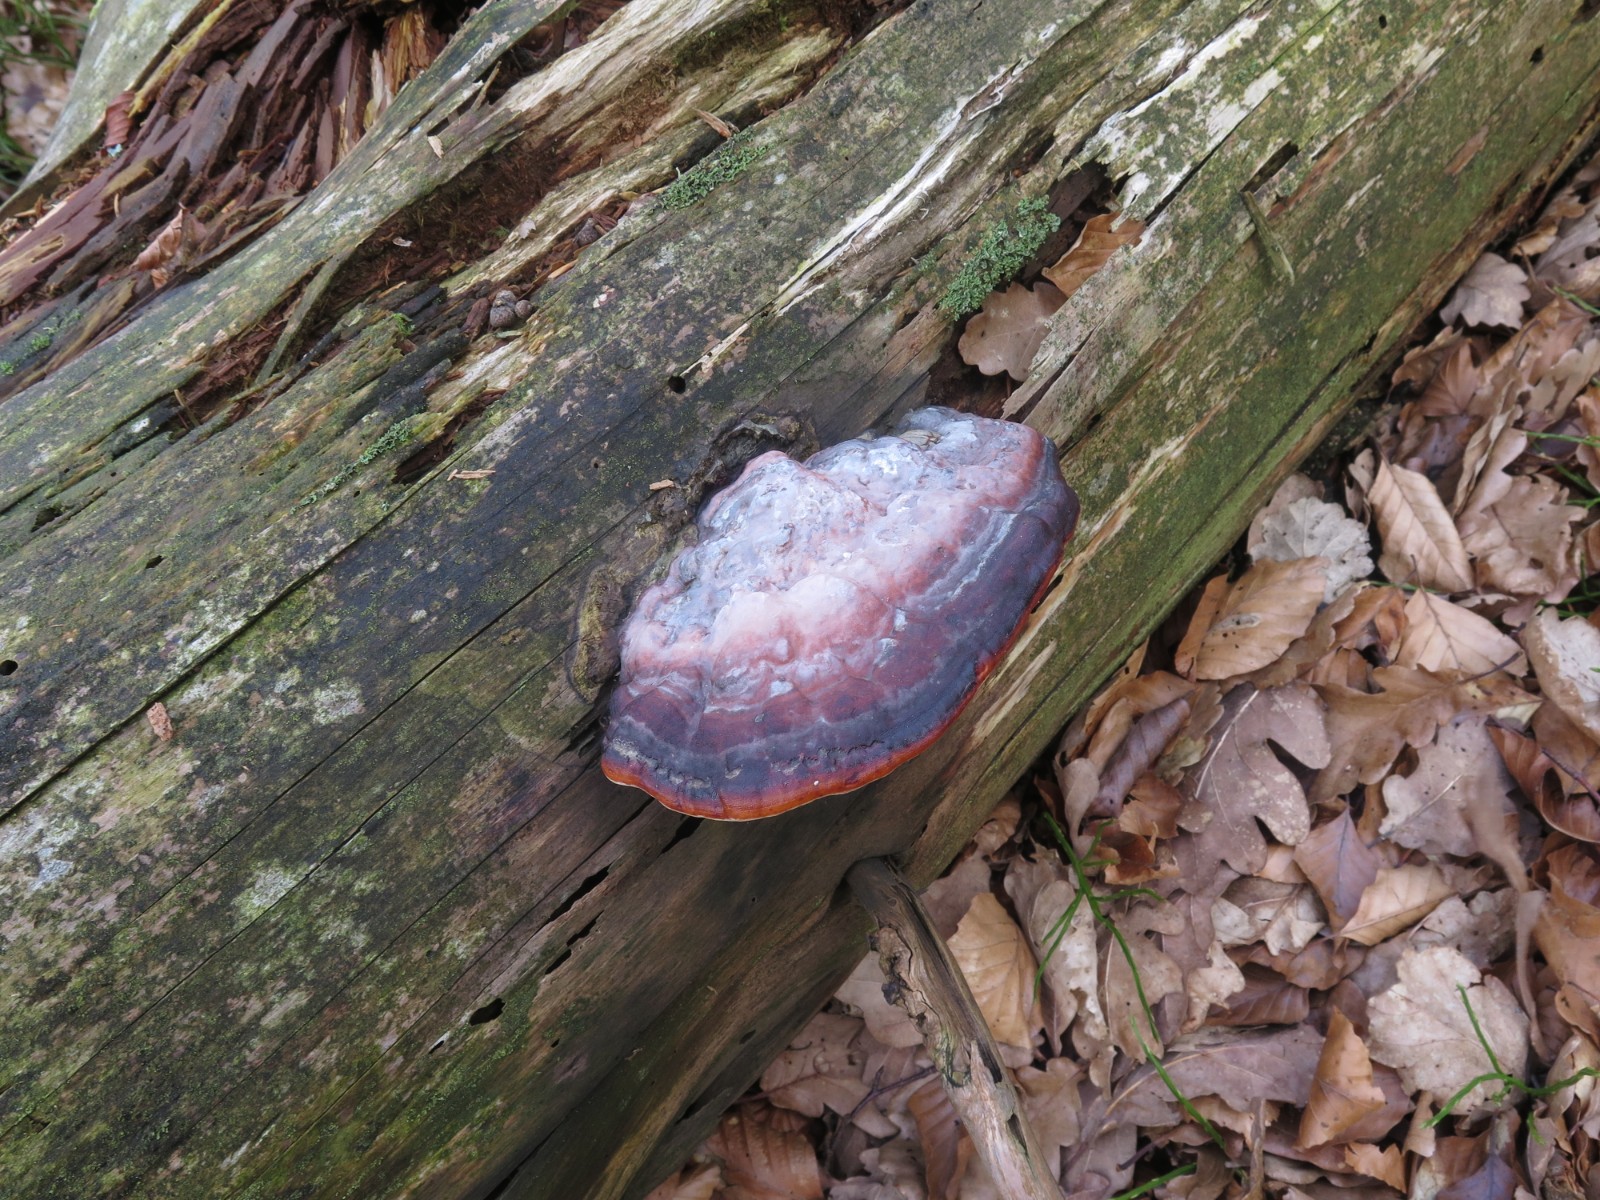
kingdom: Fungi
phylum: Basidiomycota
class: Agaricomycetes
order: Polyporales
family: Fomitopsidaceae
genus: Fomitopsis
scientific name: Fomitopsis pinicola
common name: randbæltet hovporesvamp
